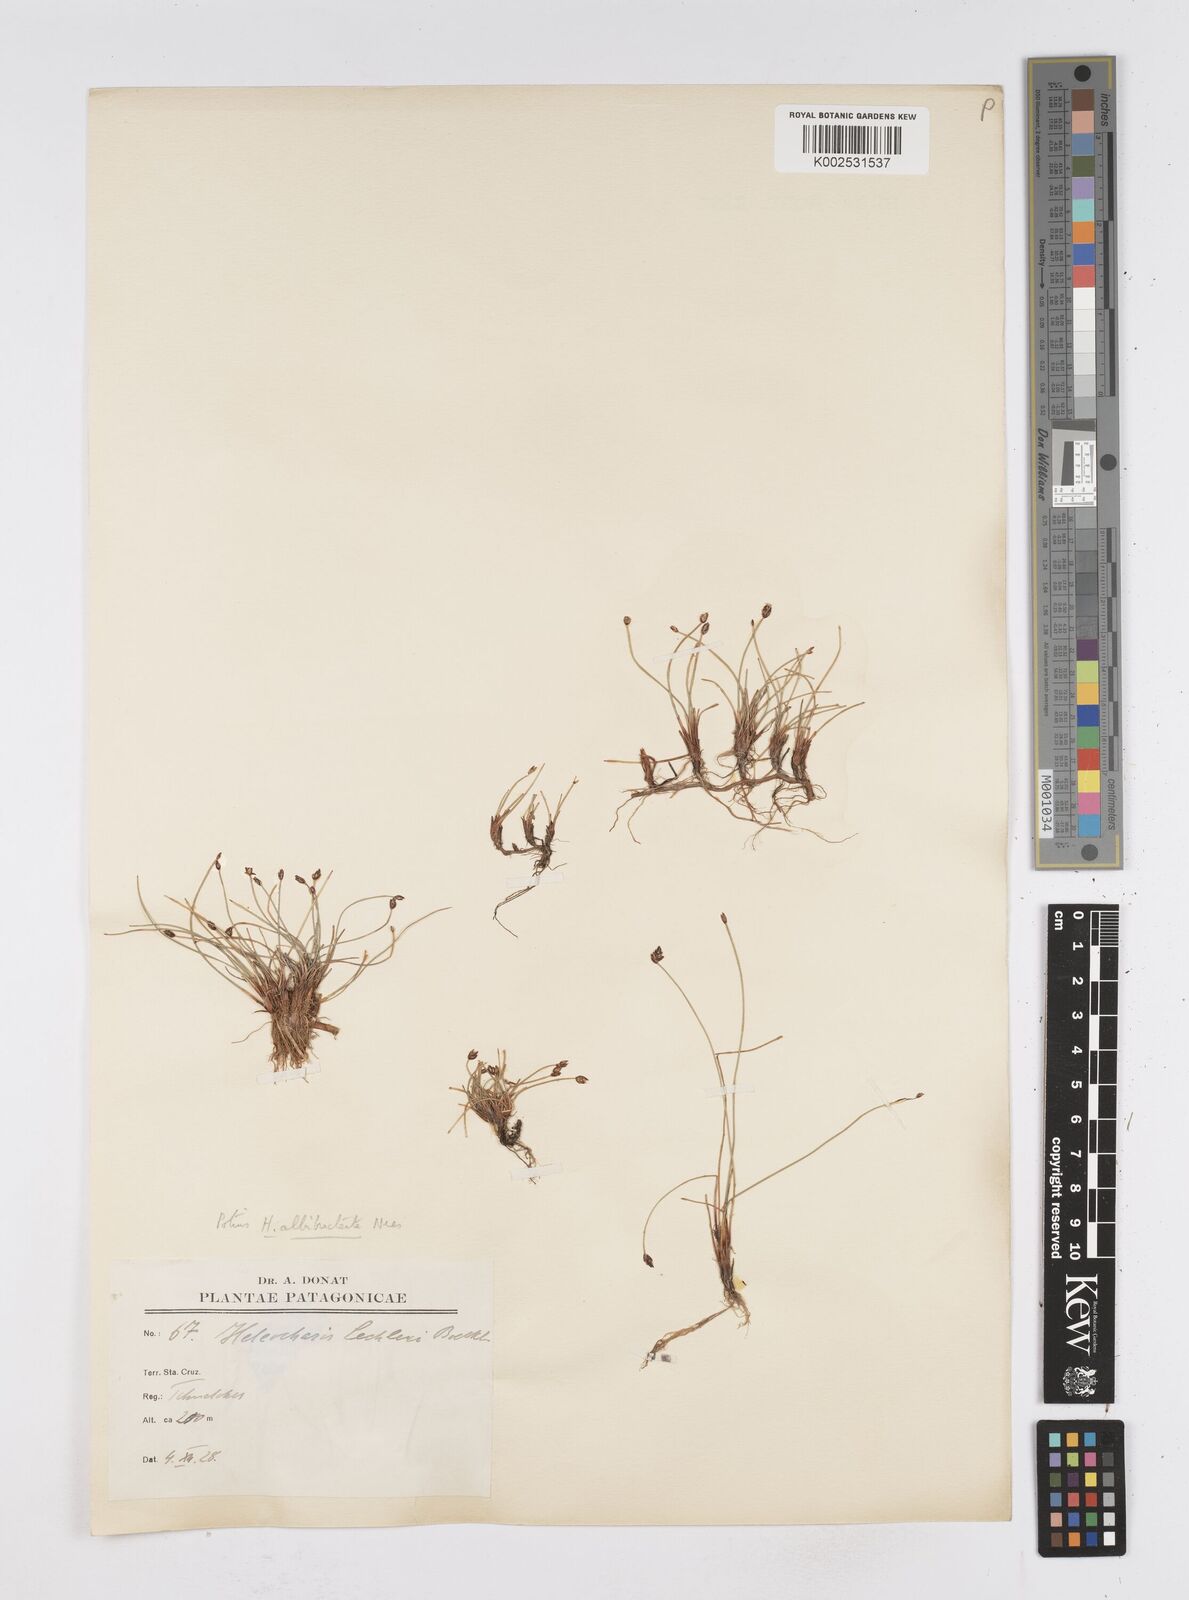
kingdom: Plantae
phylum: Tracheophyta
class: Liliopsida
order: Poales
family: Cyperaceae
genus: Eleocharis
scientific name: Eleocharis albibracteata
